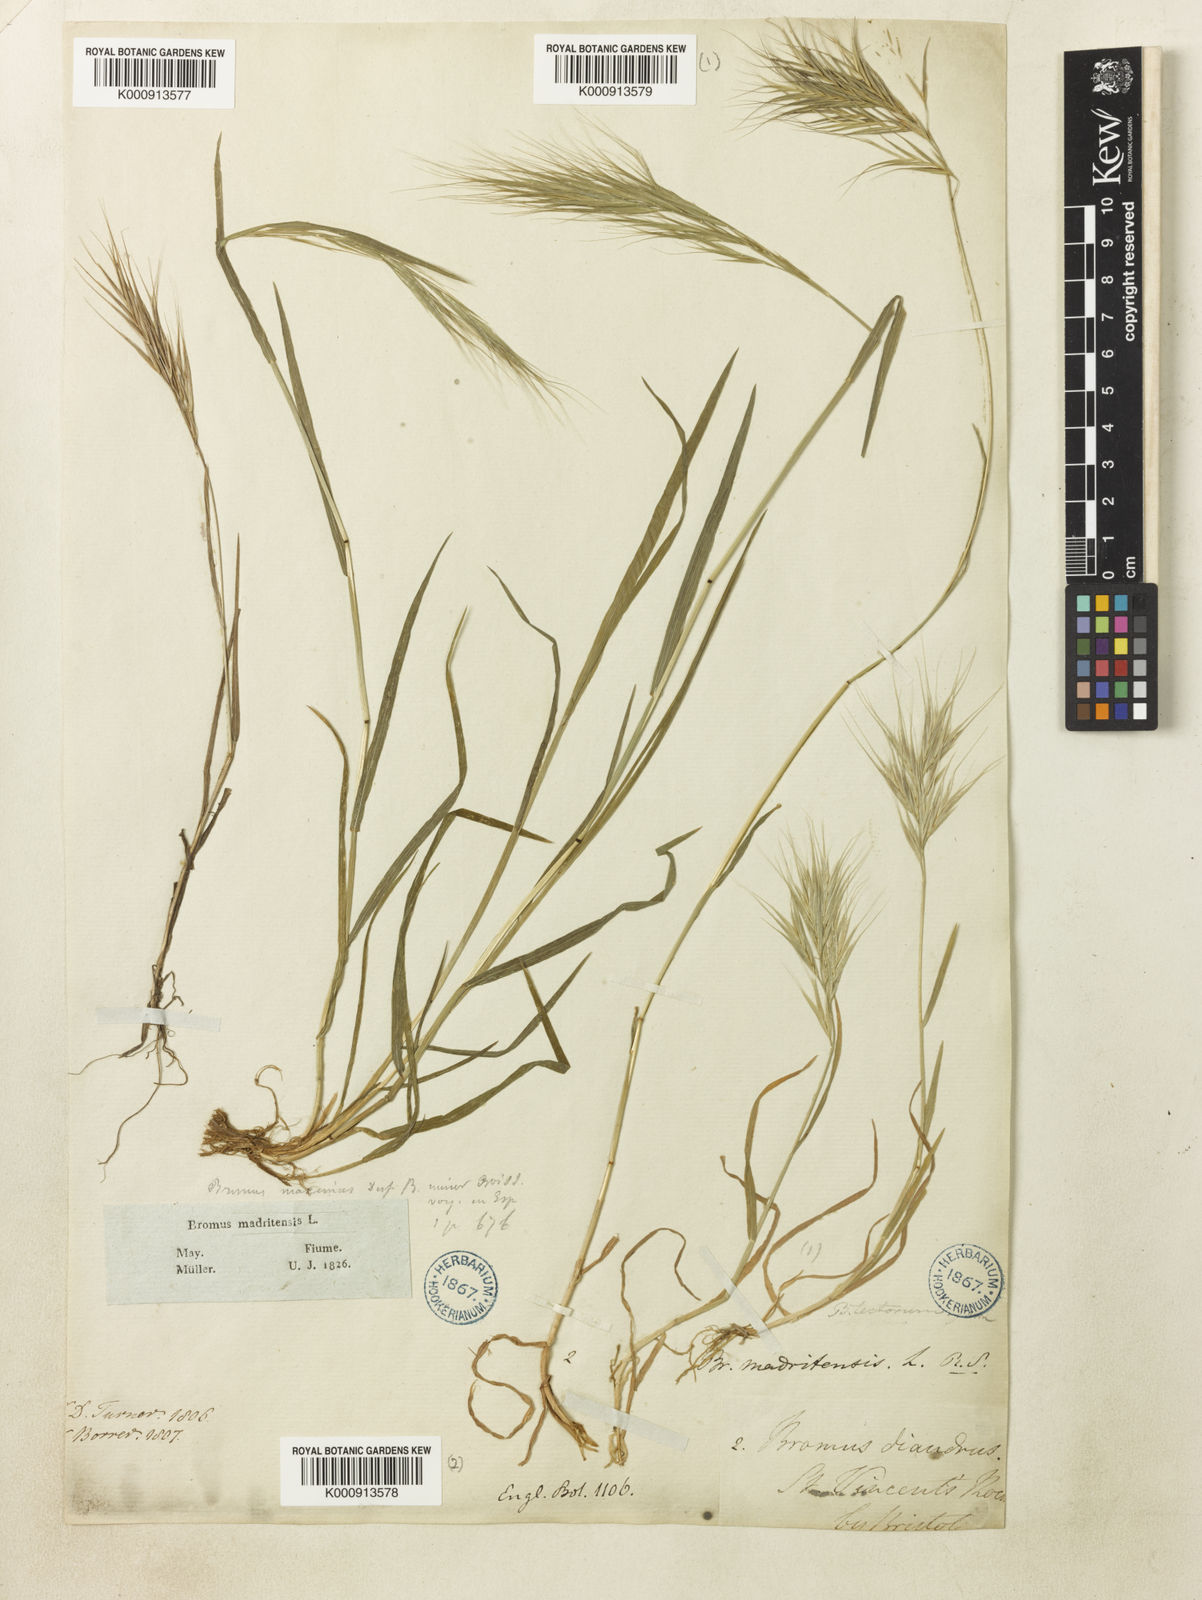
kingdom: Plantae
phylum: Tracheophyta
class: Liliopsida
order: Poales
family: Poaceae
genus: Bromus
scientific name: Bromus madritensis
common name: Compact brome
